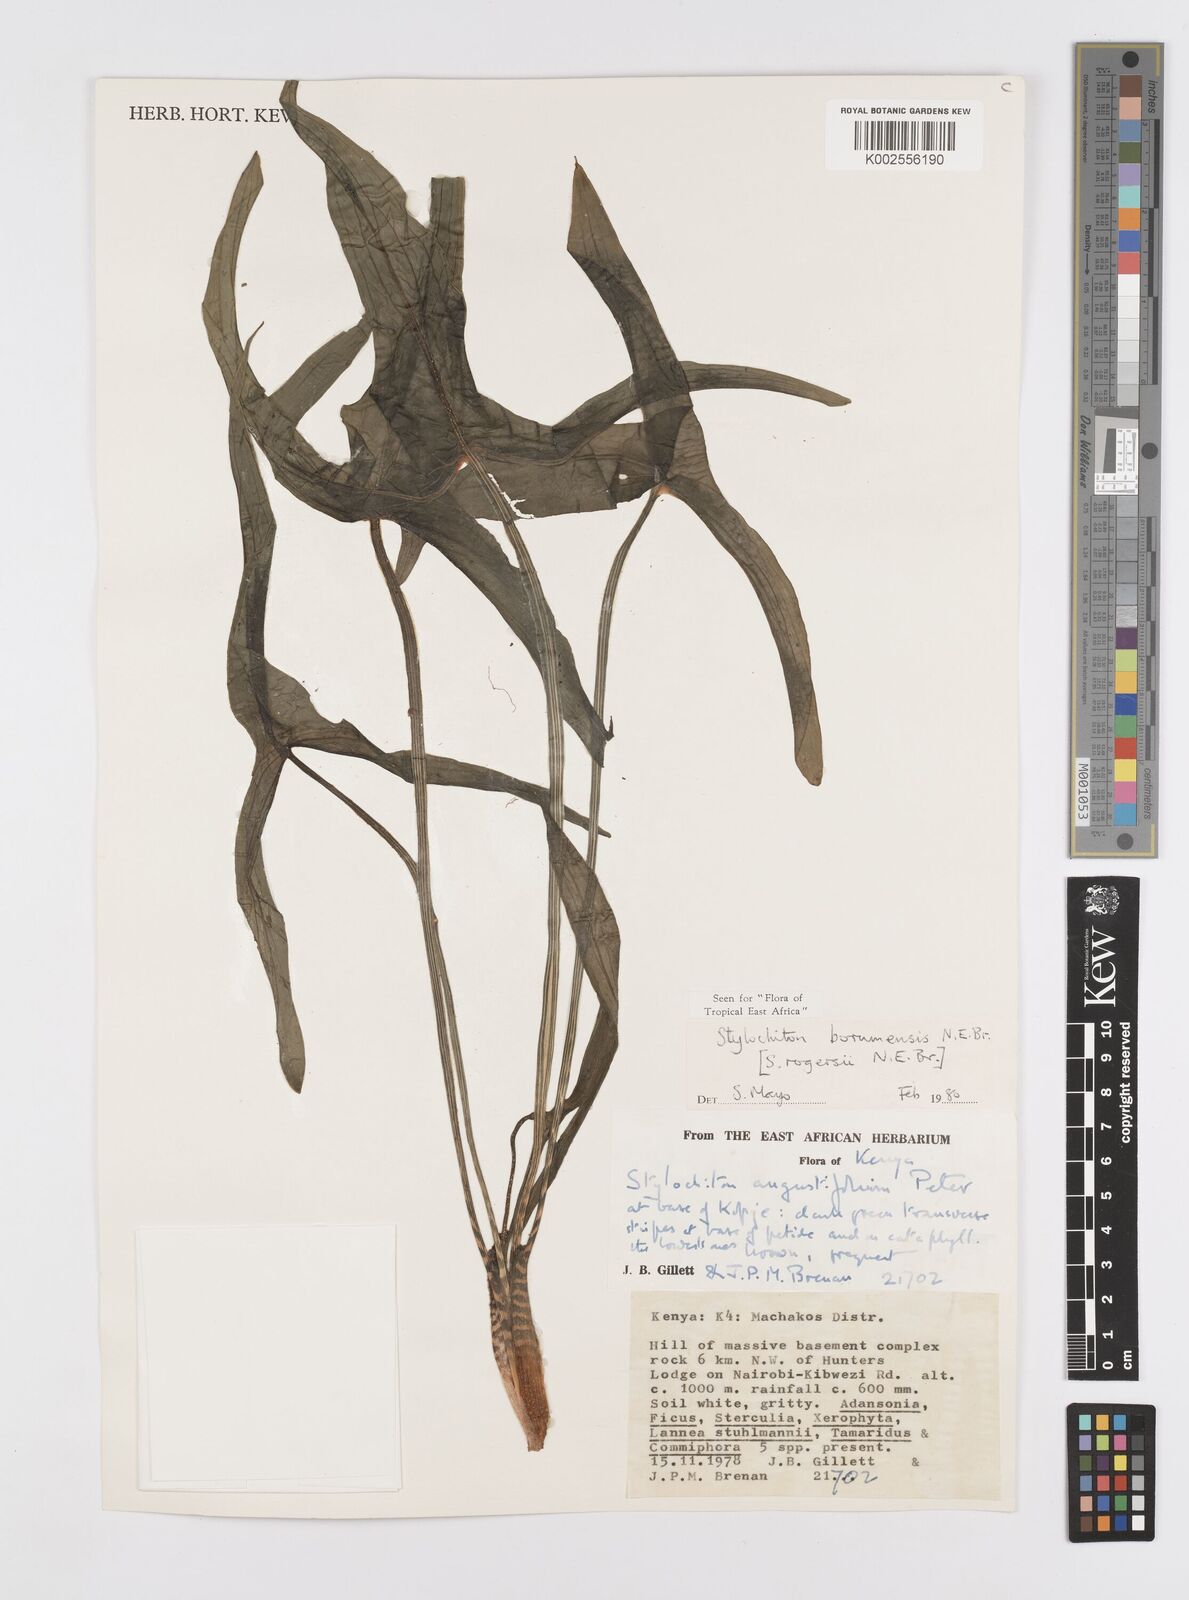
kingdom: Plantae
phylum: Tracheophyta
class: Liliopsida
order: Alismatales
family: Araceae
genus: Stylochaeton
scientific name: Stylochaeton borumense
